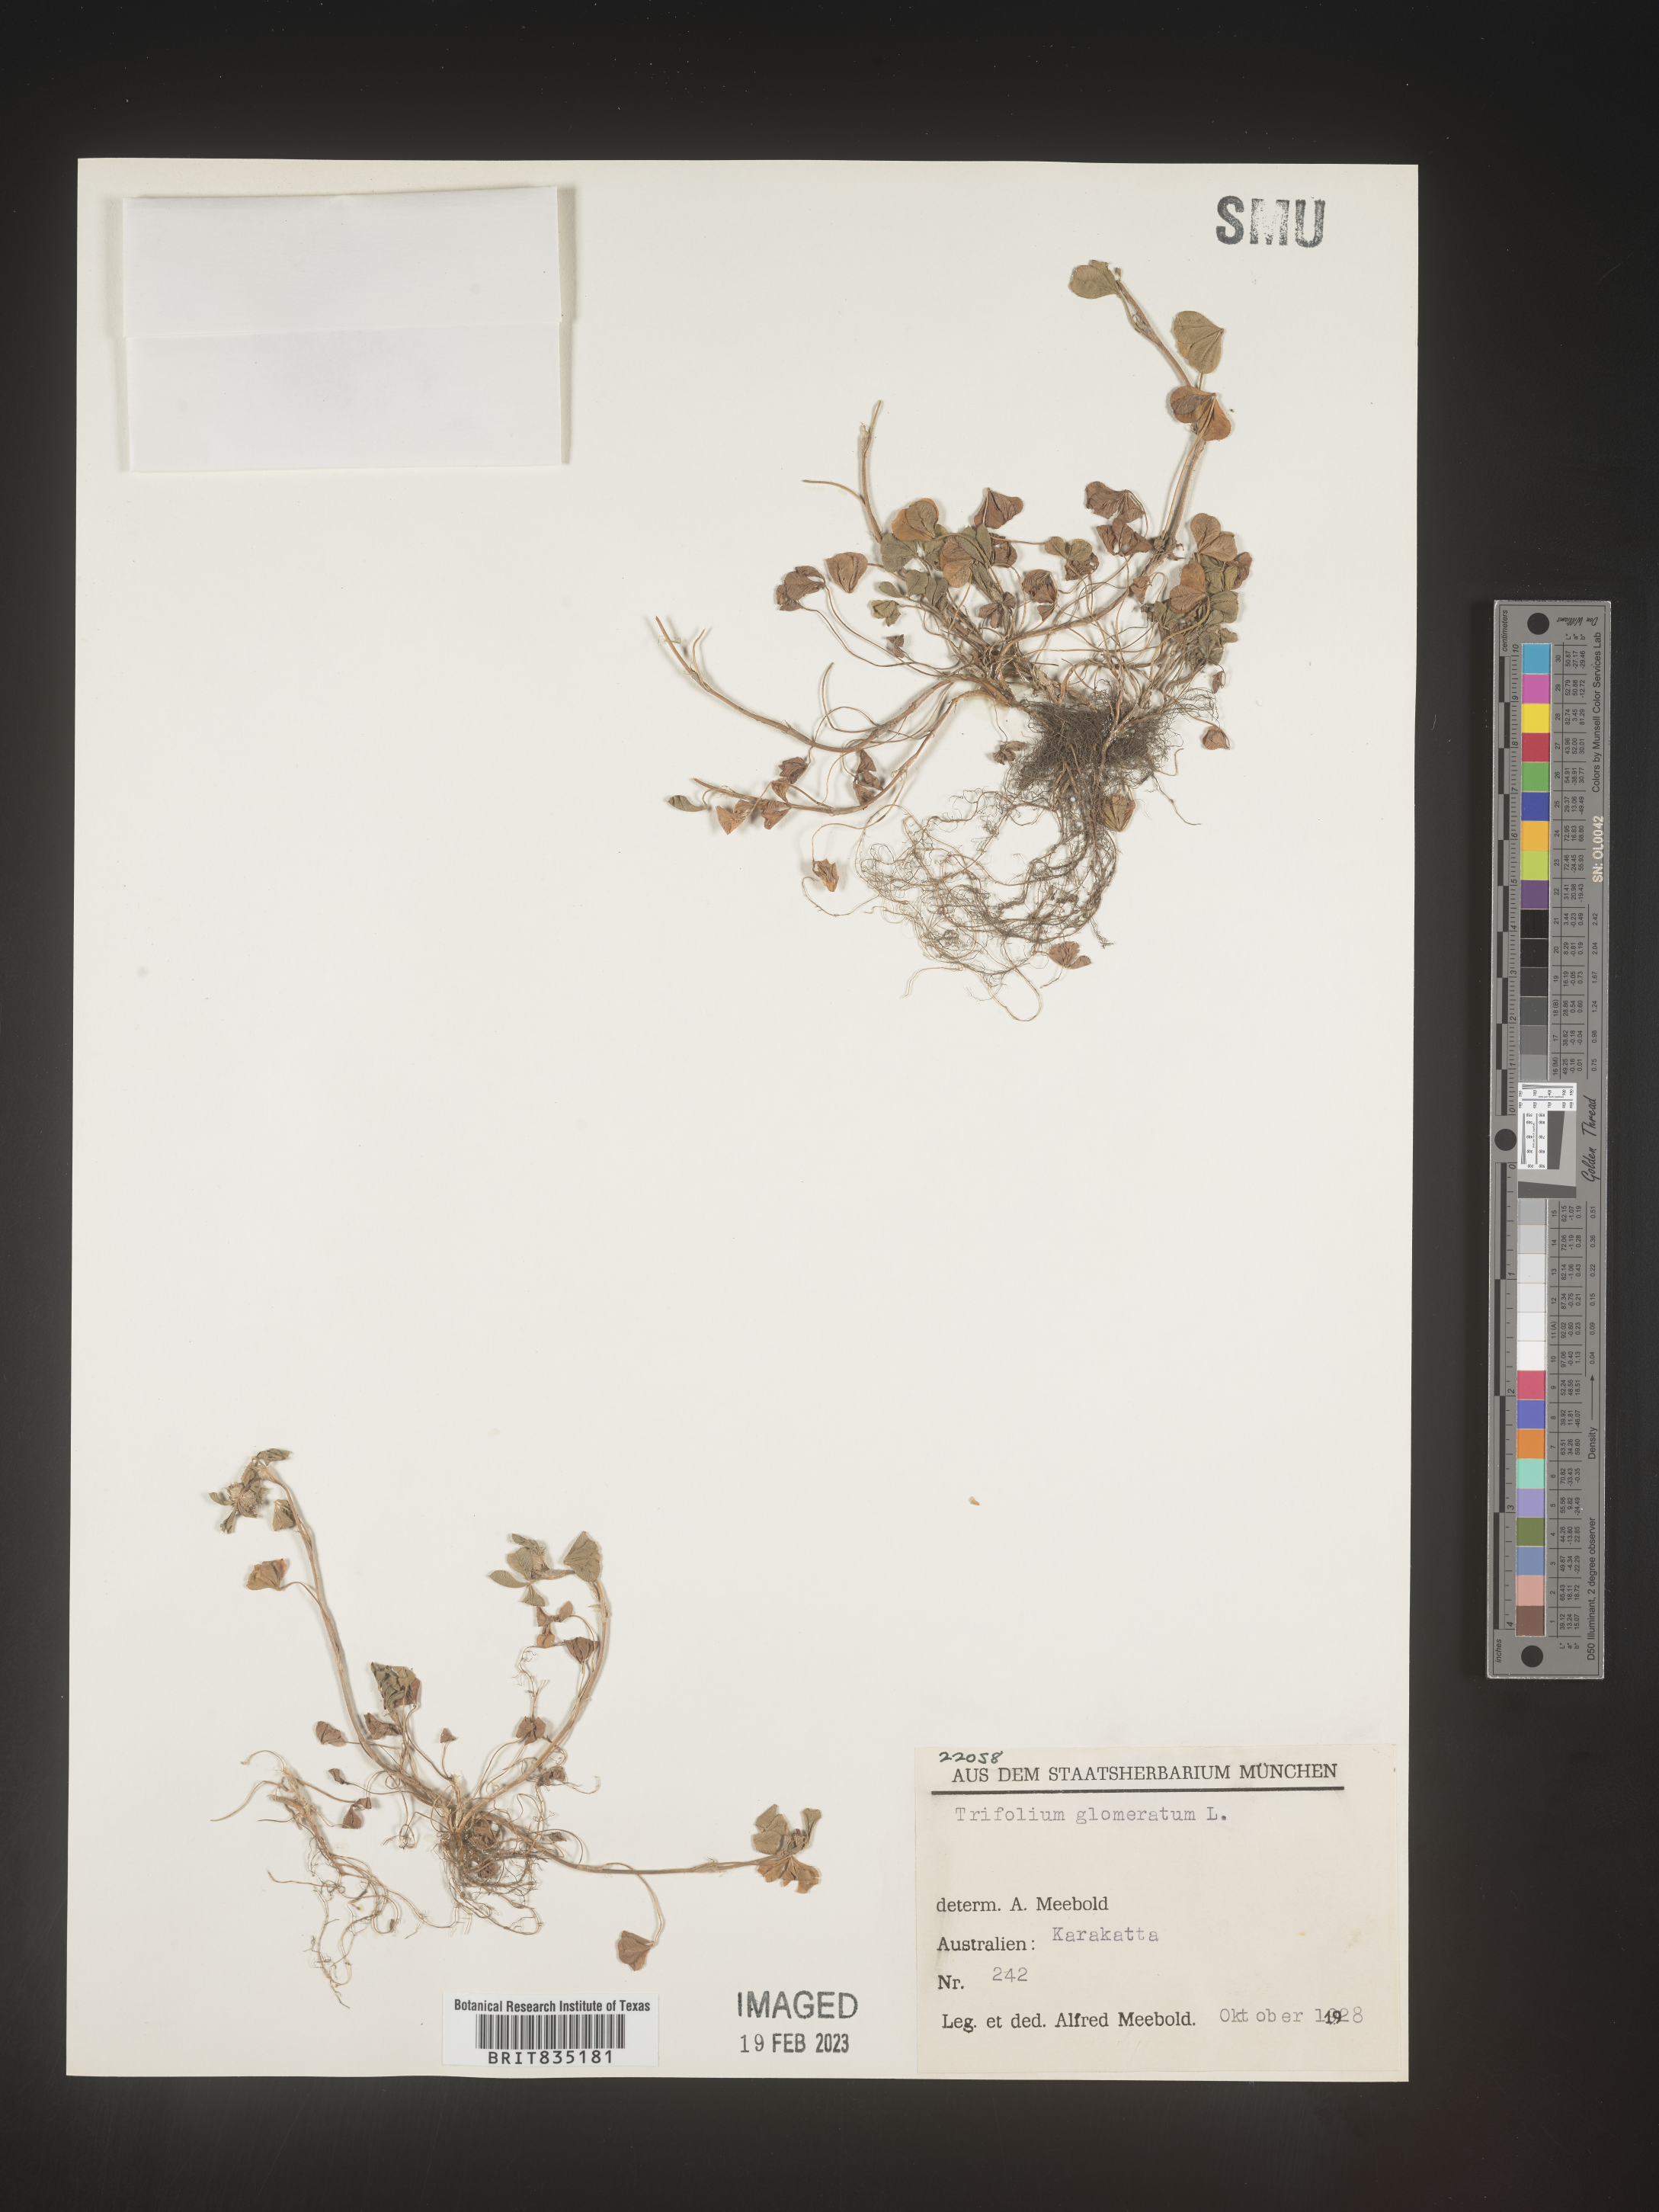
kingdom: Plantae
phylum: Tracheophyta
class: Magnoliopsida
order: Fabales
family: Fabaceae
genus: Trifolium
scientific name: Trifolium
